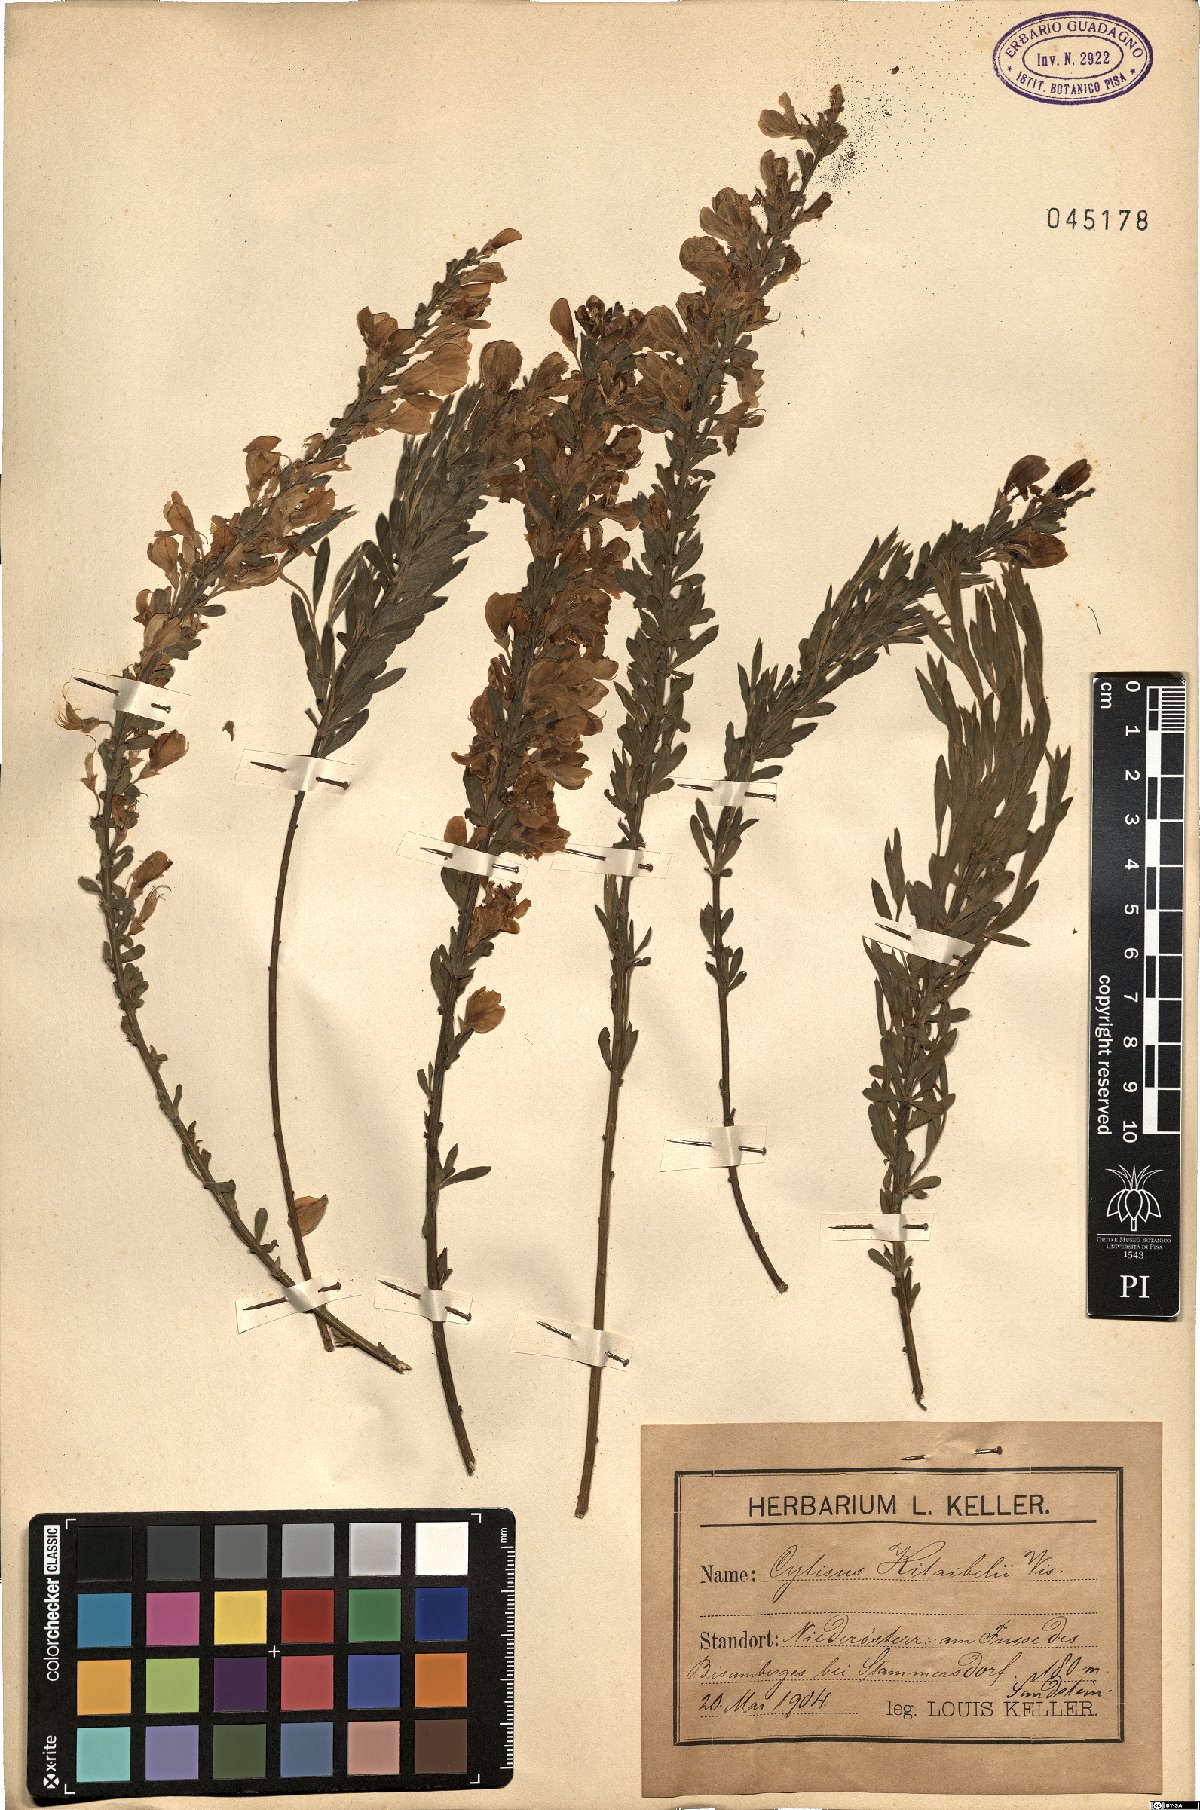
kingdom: Plantae
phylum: Tracheophyta
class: Magnoliopsida
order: Fabales
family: Fabaceae
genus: Cytisus
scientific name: Cytisus procumbens
